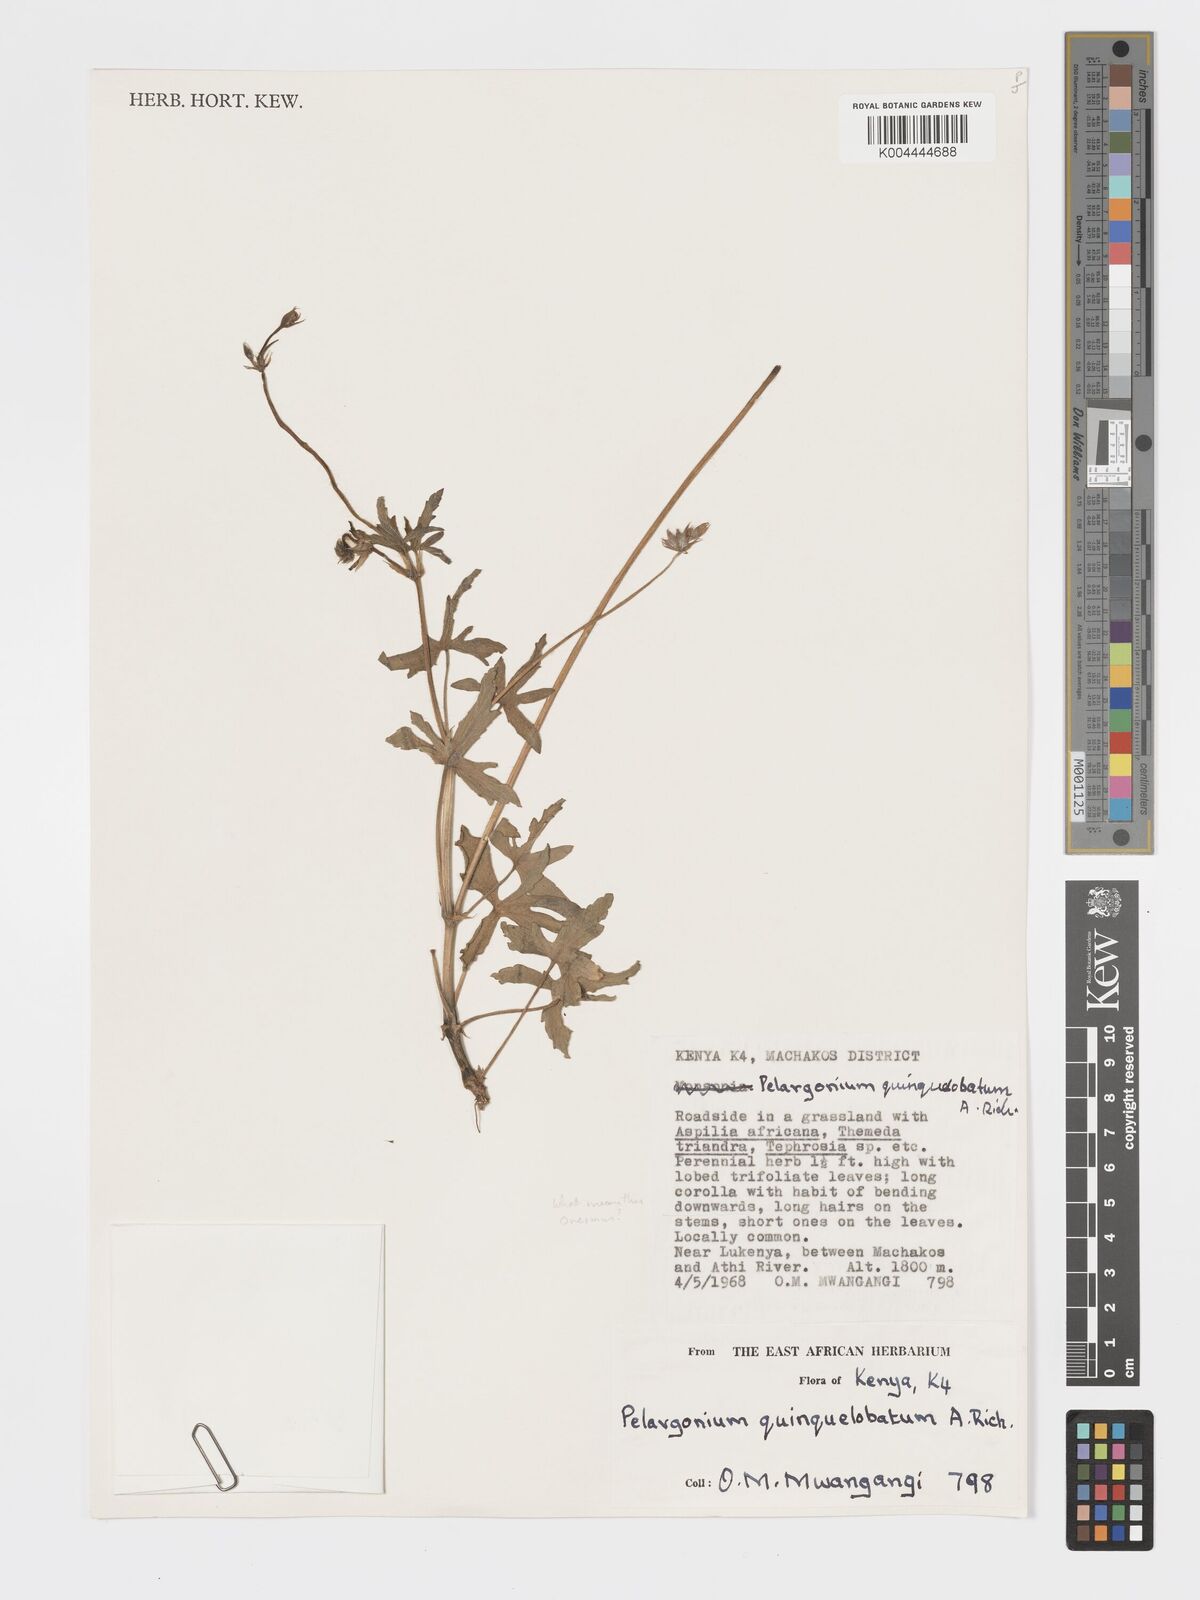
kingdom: Plantae
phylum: Tracheophyta
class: Magnoliopsida
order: Geraniales
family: Geraniaceae
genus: Pelargonium
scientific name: Pelargonium quinquelobatum
